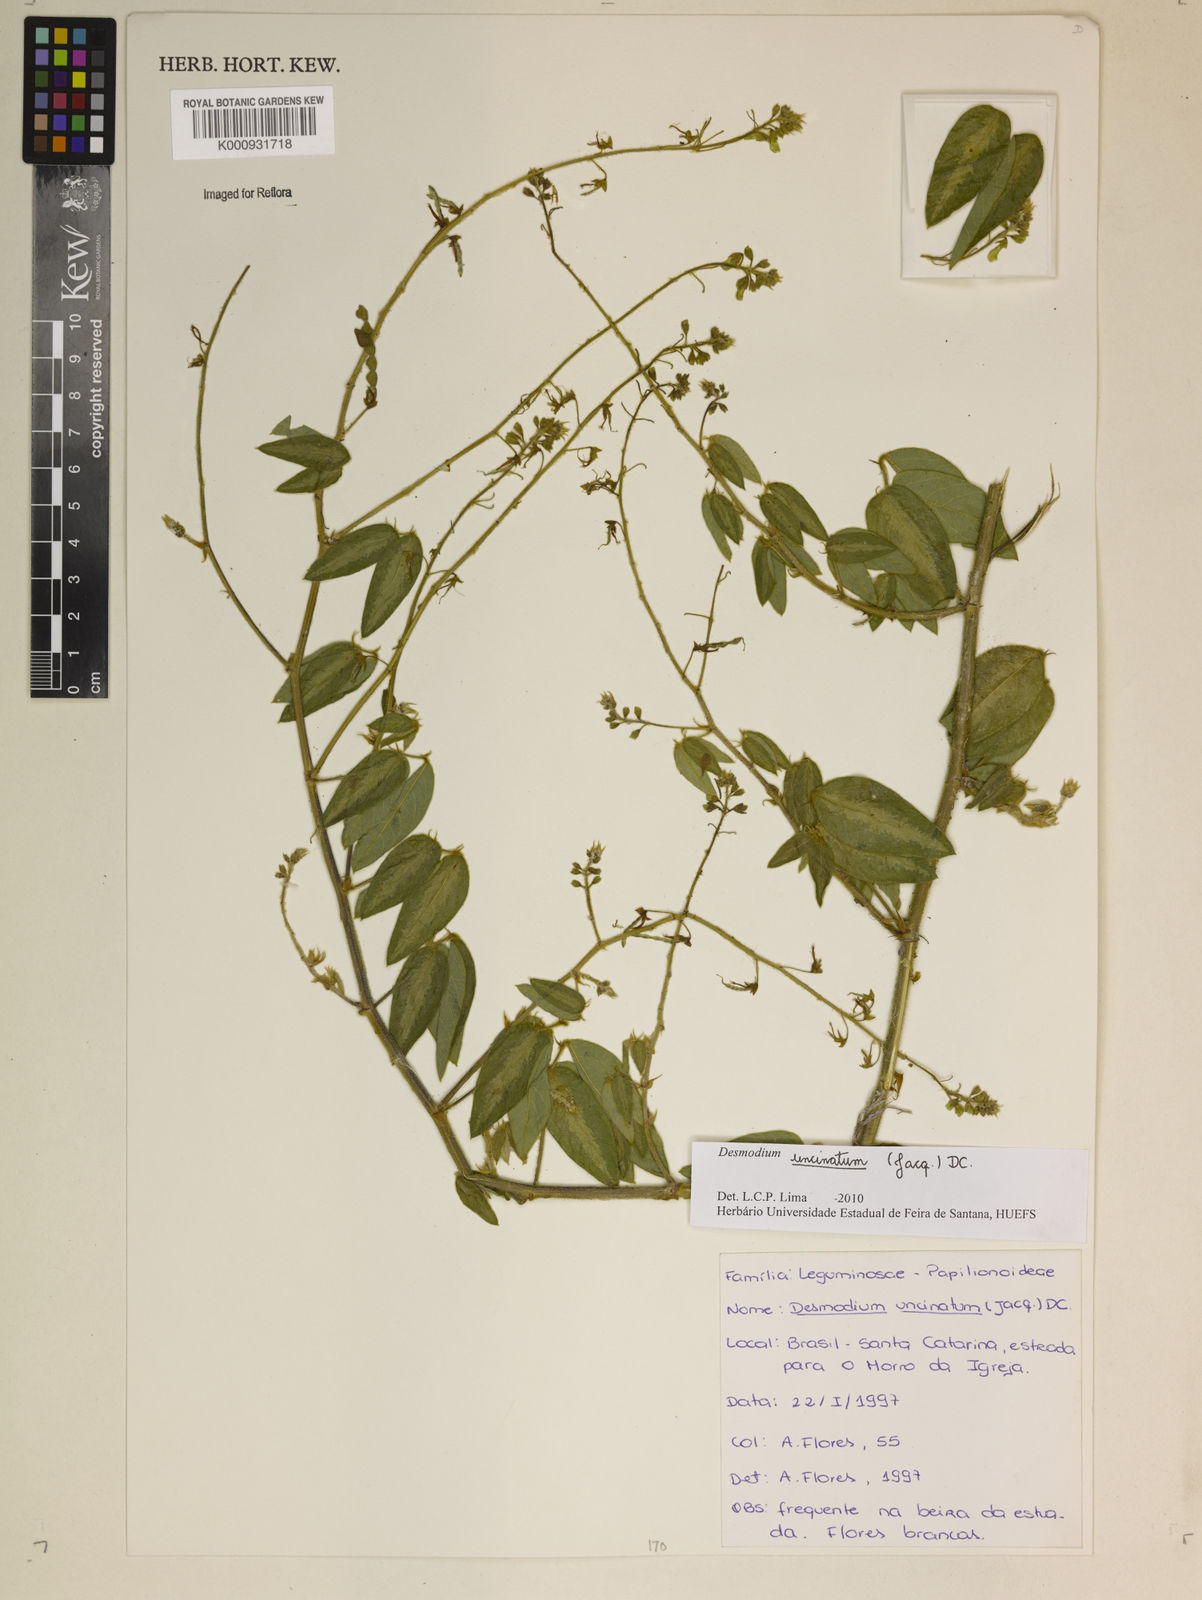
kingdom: Plantae
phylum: Tracheophyta
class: Magnoliopsida
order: Fabales
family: Fabaceae
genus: Desmodium
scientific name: Desmodium uncinatum
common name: Silverleaf desmodium
